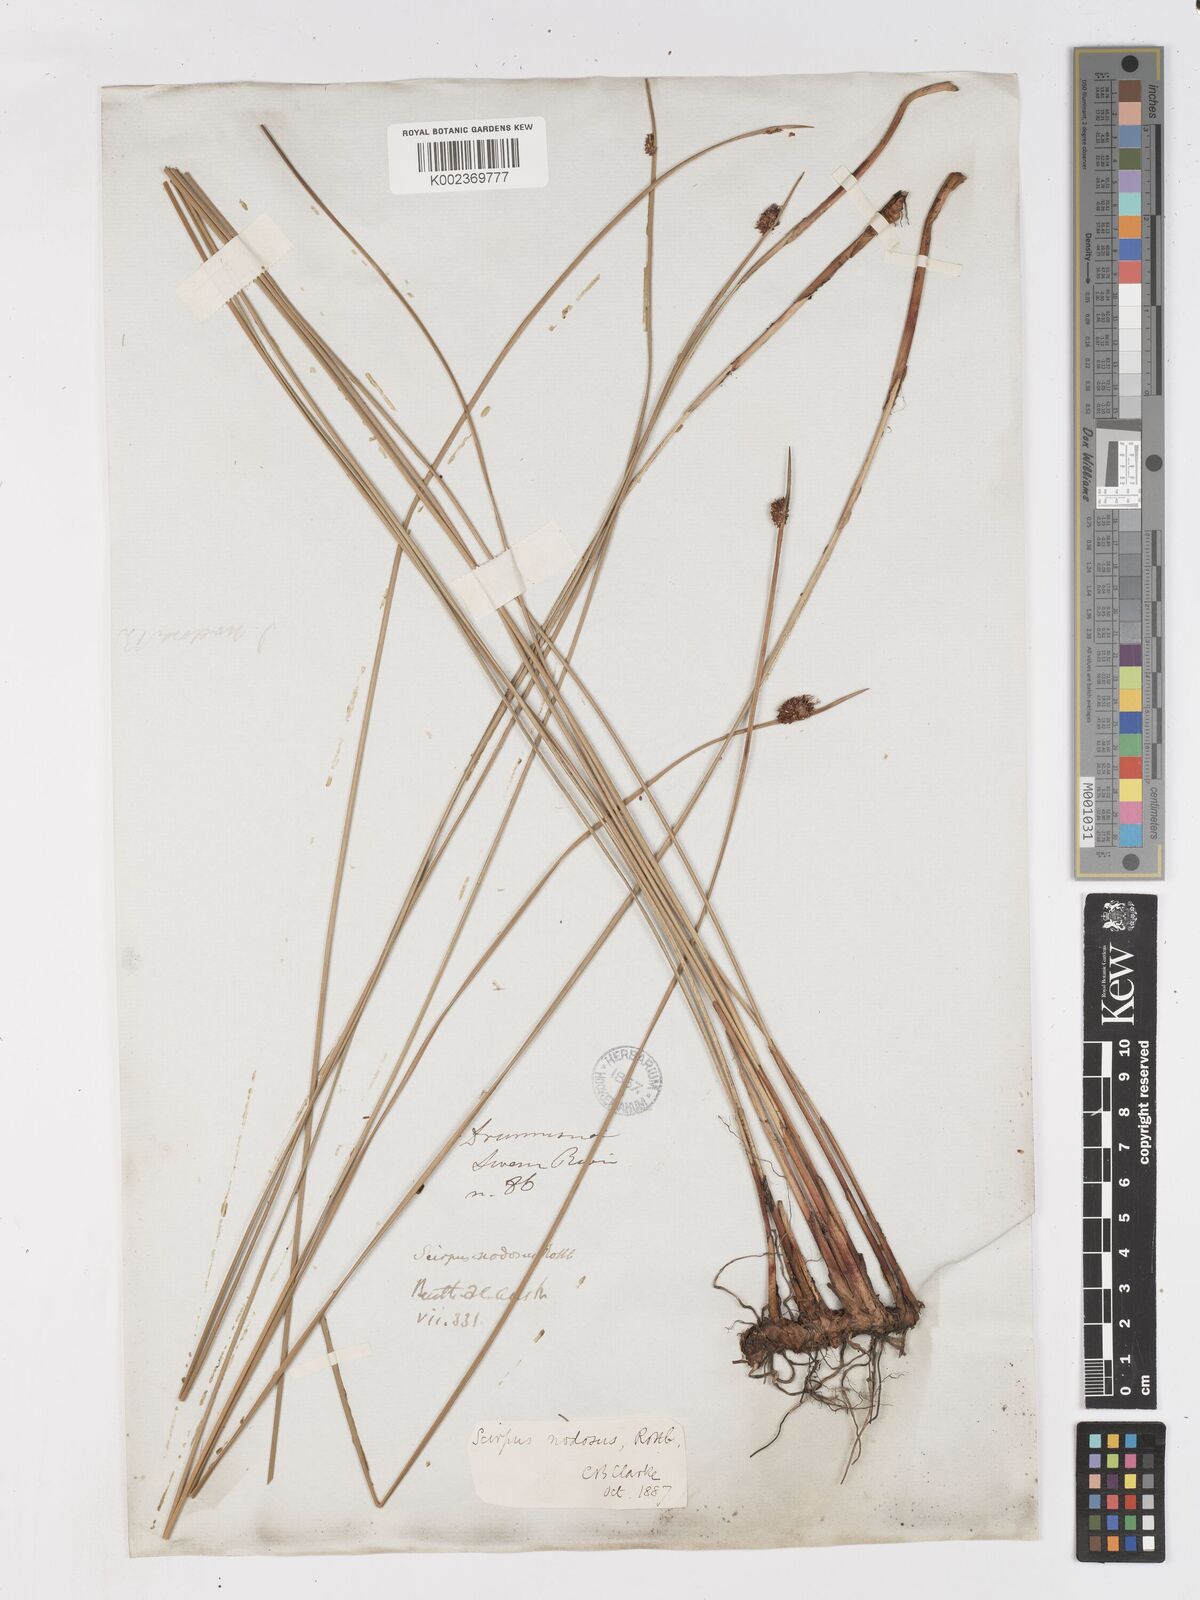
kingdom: Plantae
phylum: Tracheophyta
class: Liliopsida
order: Poales
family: Cyperaceae
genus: Ficinia
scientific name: Ficinia nodosa
